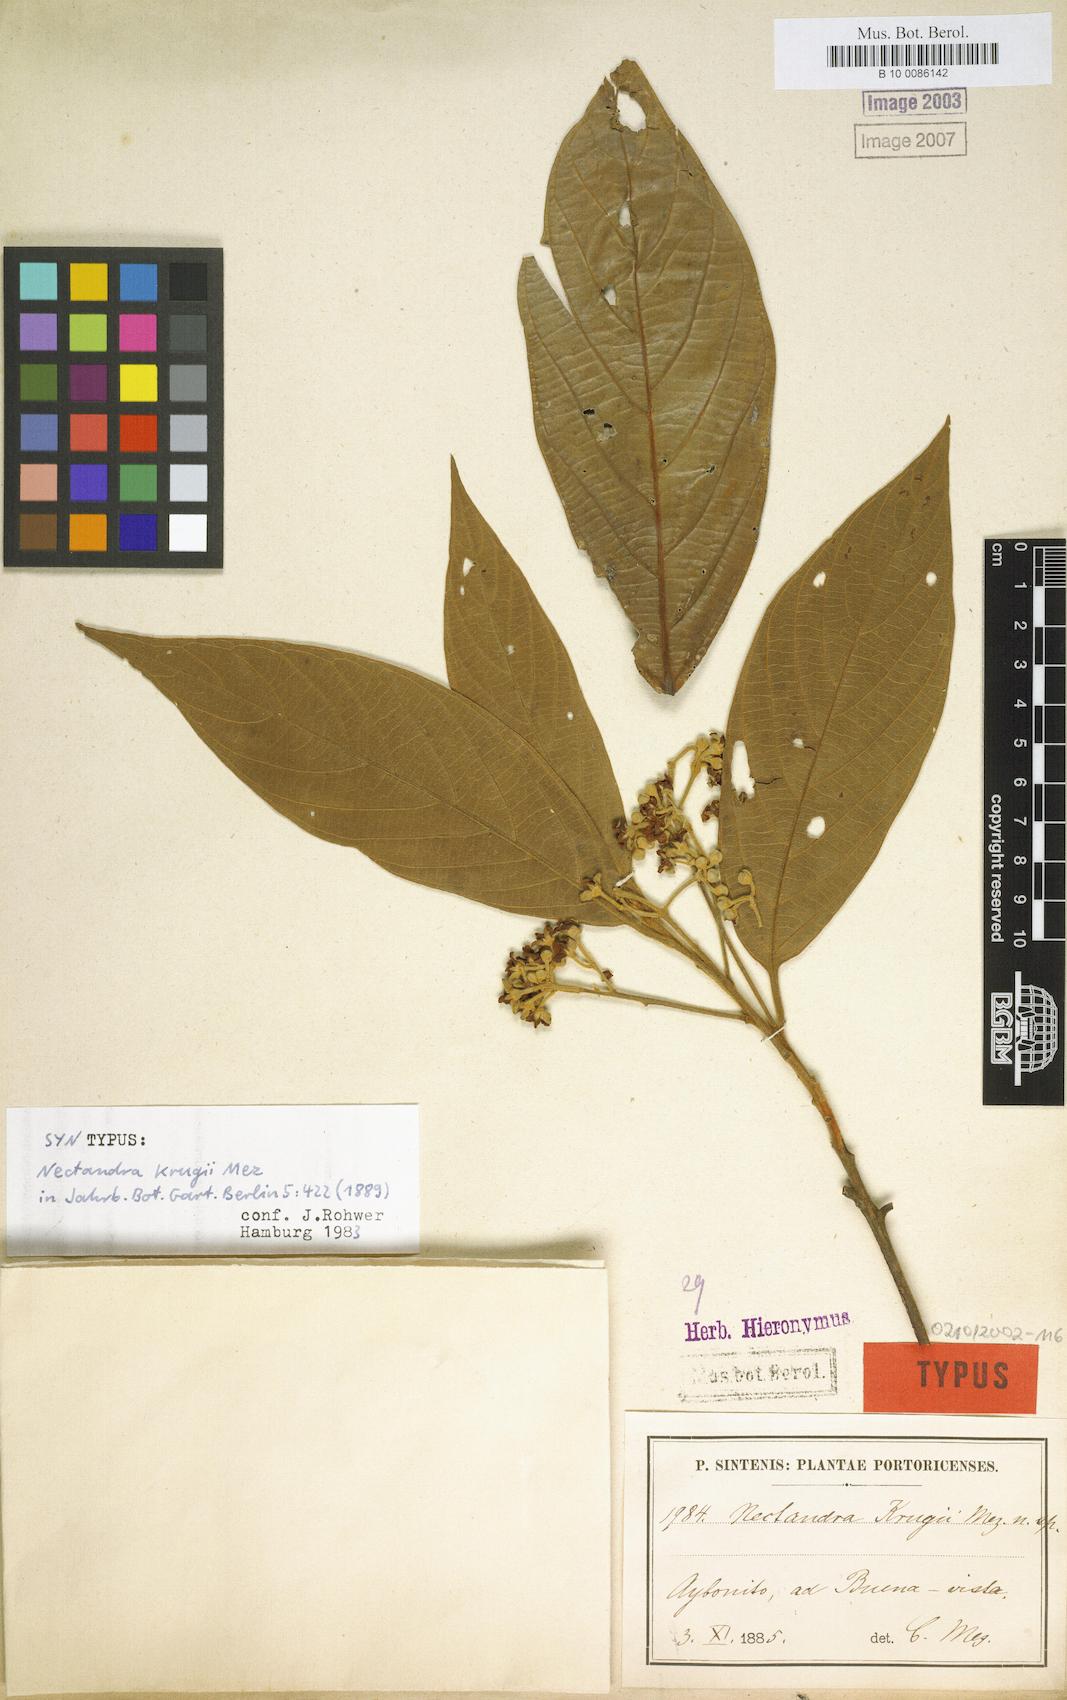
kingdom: Plantae
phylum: Tracheophyta
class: Magnoliopsida
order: Laurales
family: Lauraceae
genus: Nectandra
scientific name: Nectandra krugii
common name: Black sweetwood
